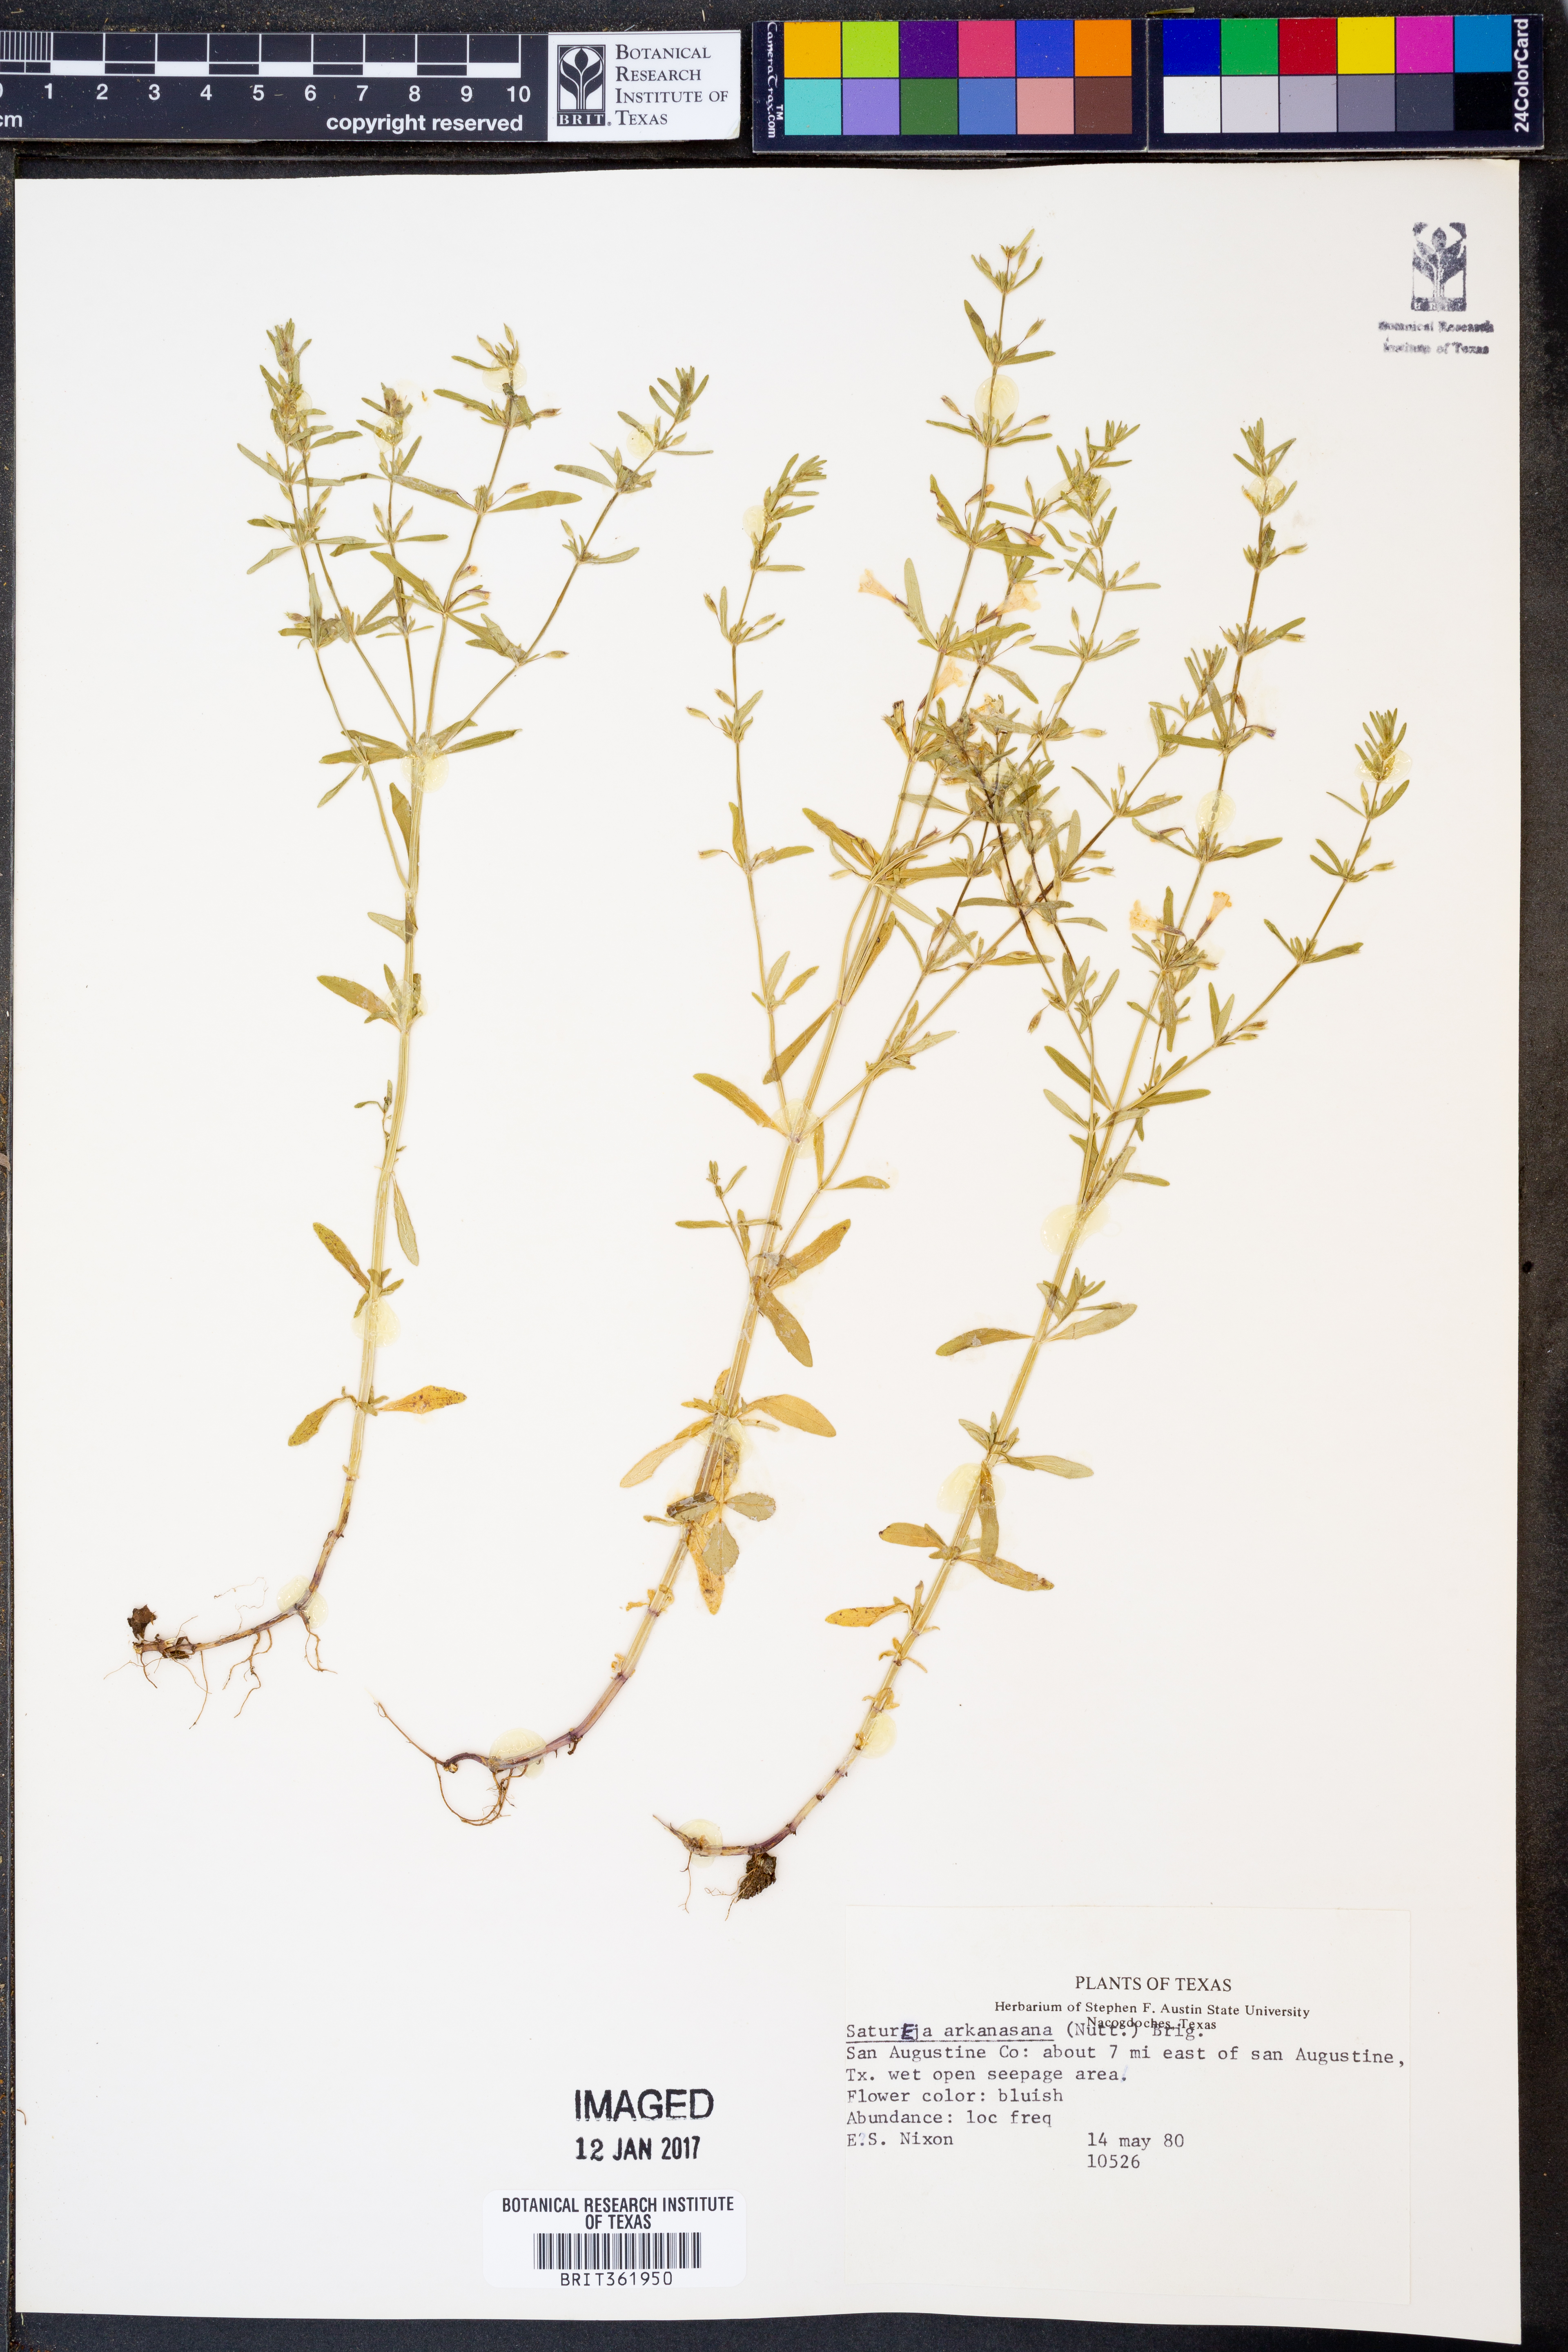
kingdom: Plantae
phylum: Tracheophyta
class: Magnoliopsida
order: Lamiales
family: Lamiaceae
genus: Clinopodium
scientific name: Clinopodium arkansanum
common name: Limestone calamint
